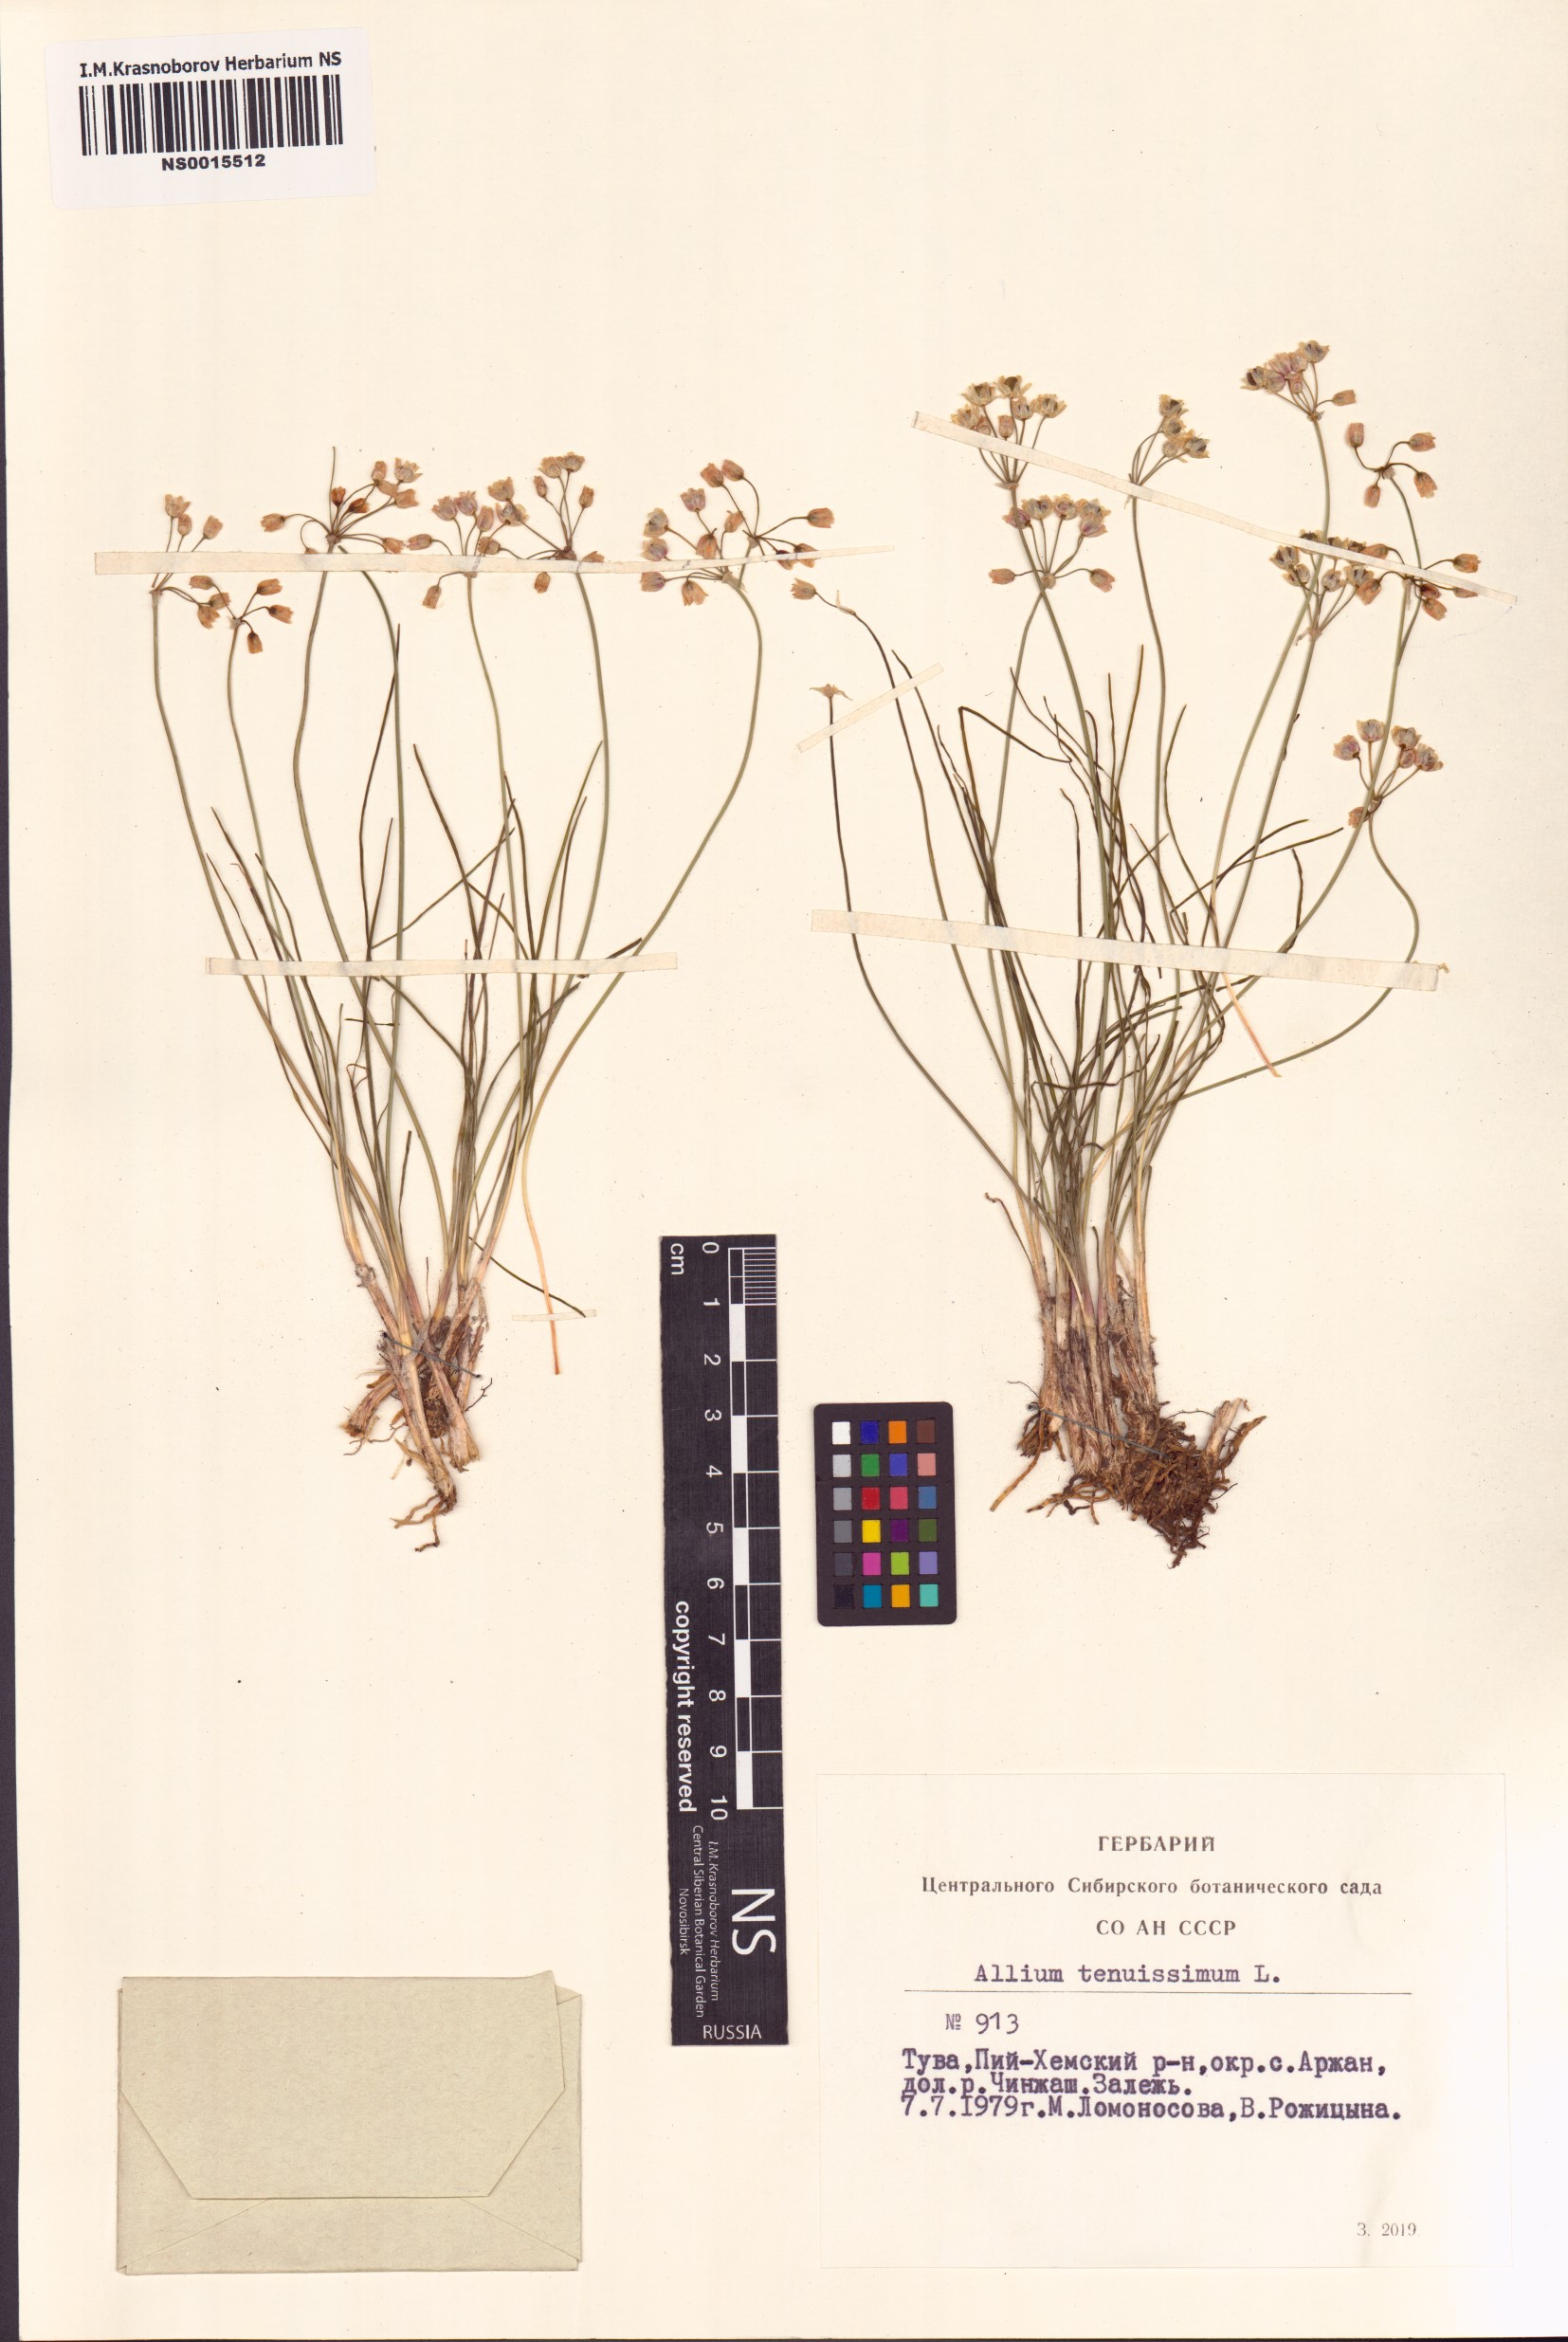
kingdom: Plantae
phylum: Tracheophyta
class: Liliopsida
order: Asparagales
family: Amaryllidaceae
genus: Allium
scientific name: Allium tenuissimum
